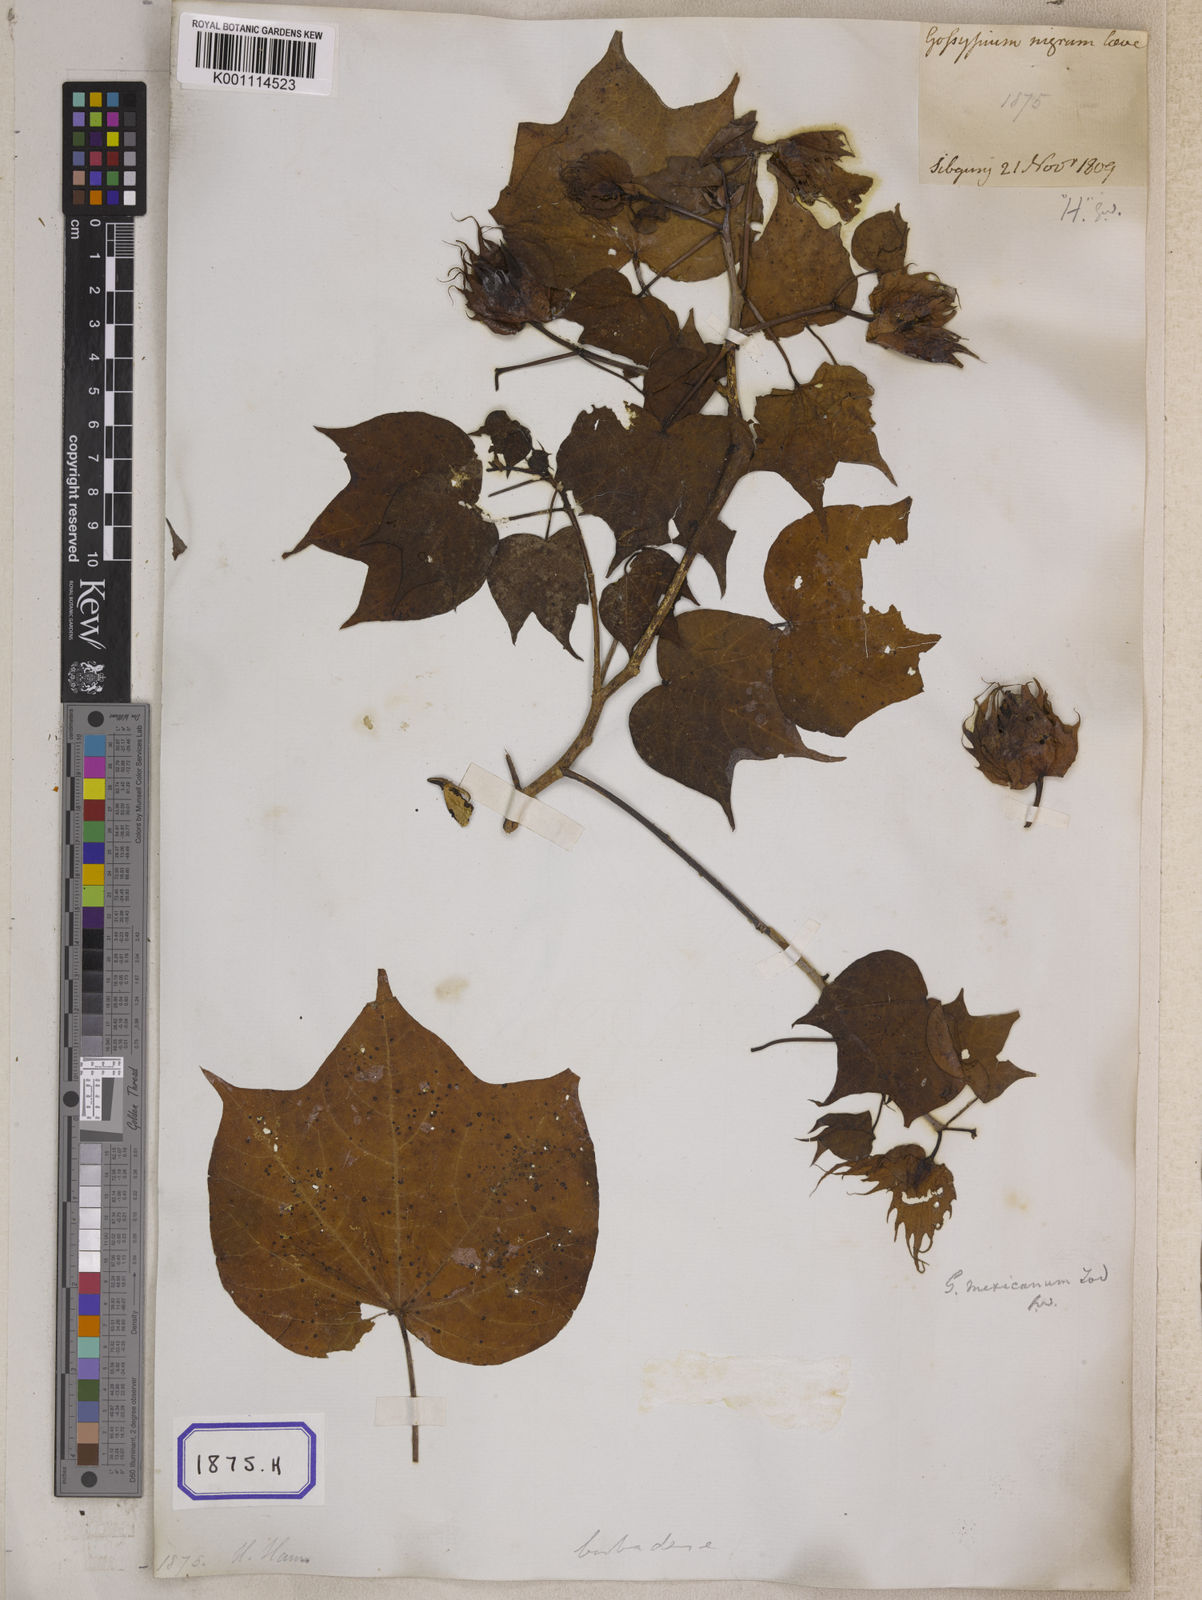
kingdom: Plantae
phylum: Tracheophyta
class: Magnoliopsida
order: Malvales
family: Malvaceae
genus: Gossypium
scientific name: Gossypium barbadense
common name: Creole cotton
